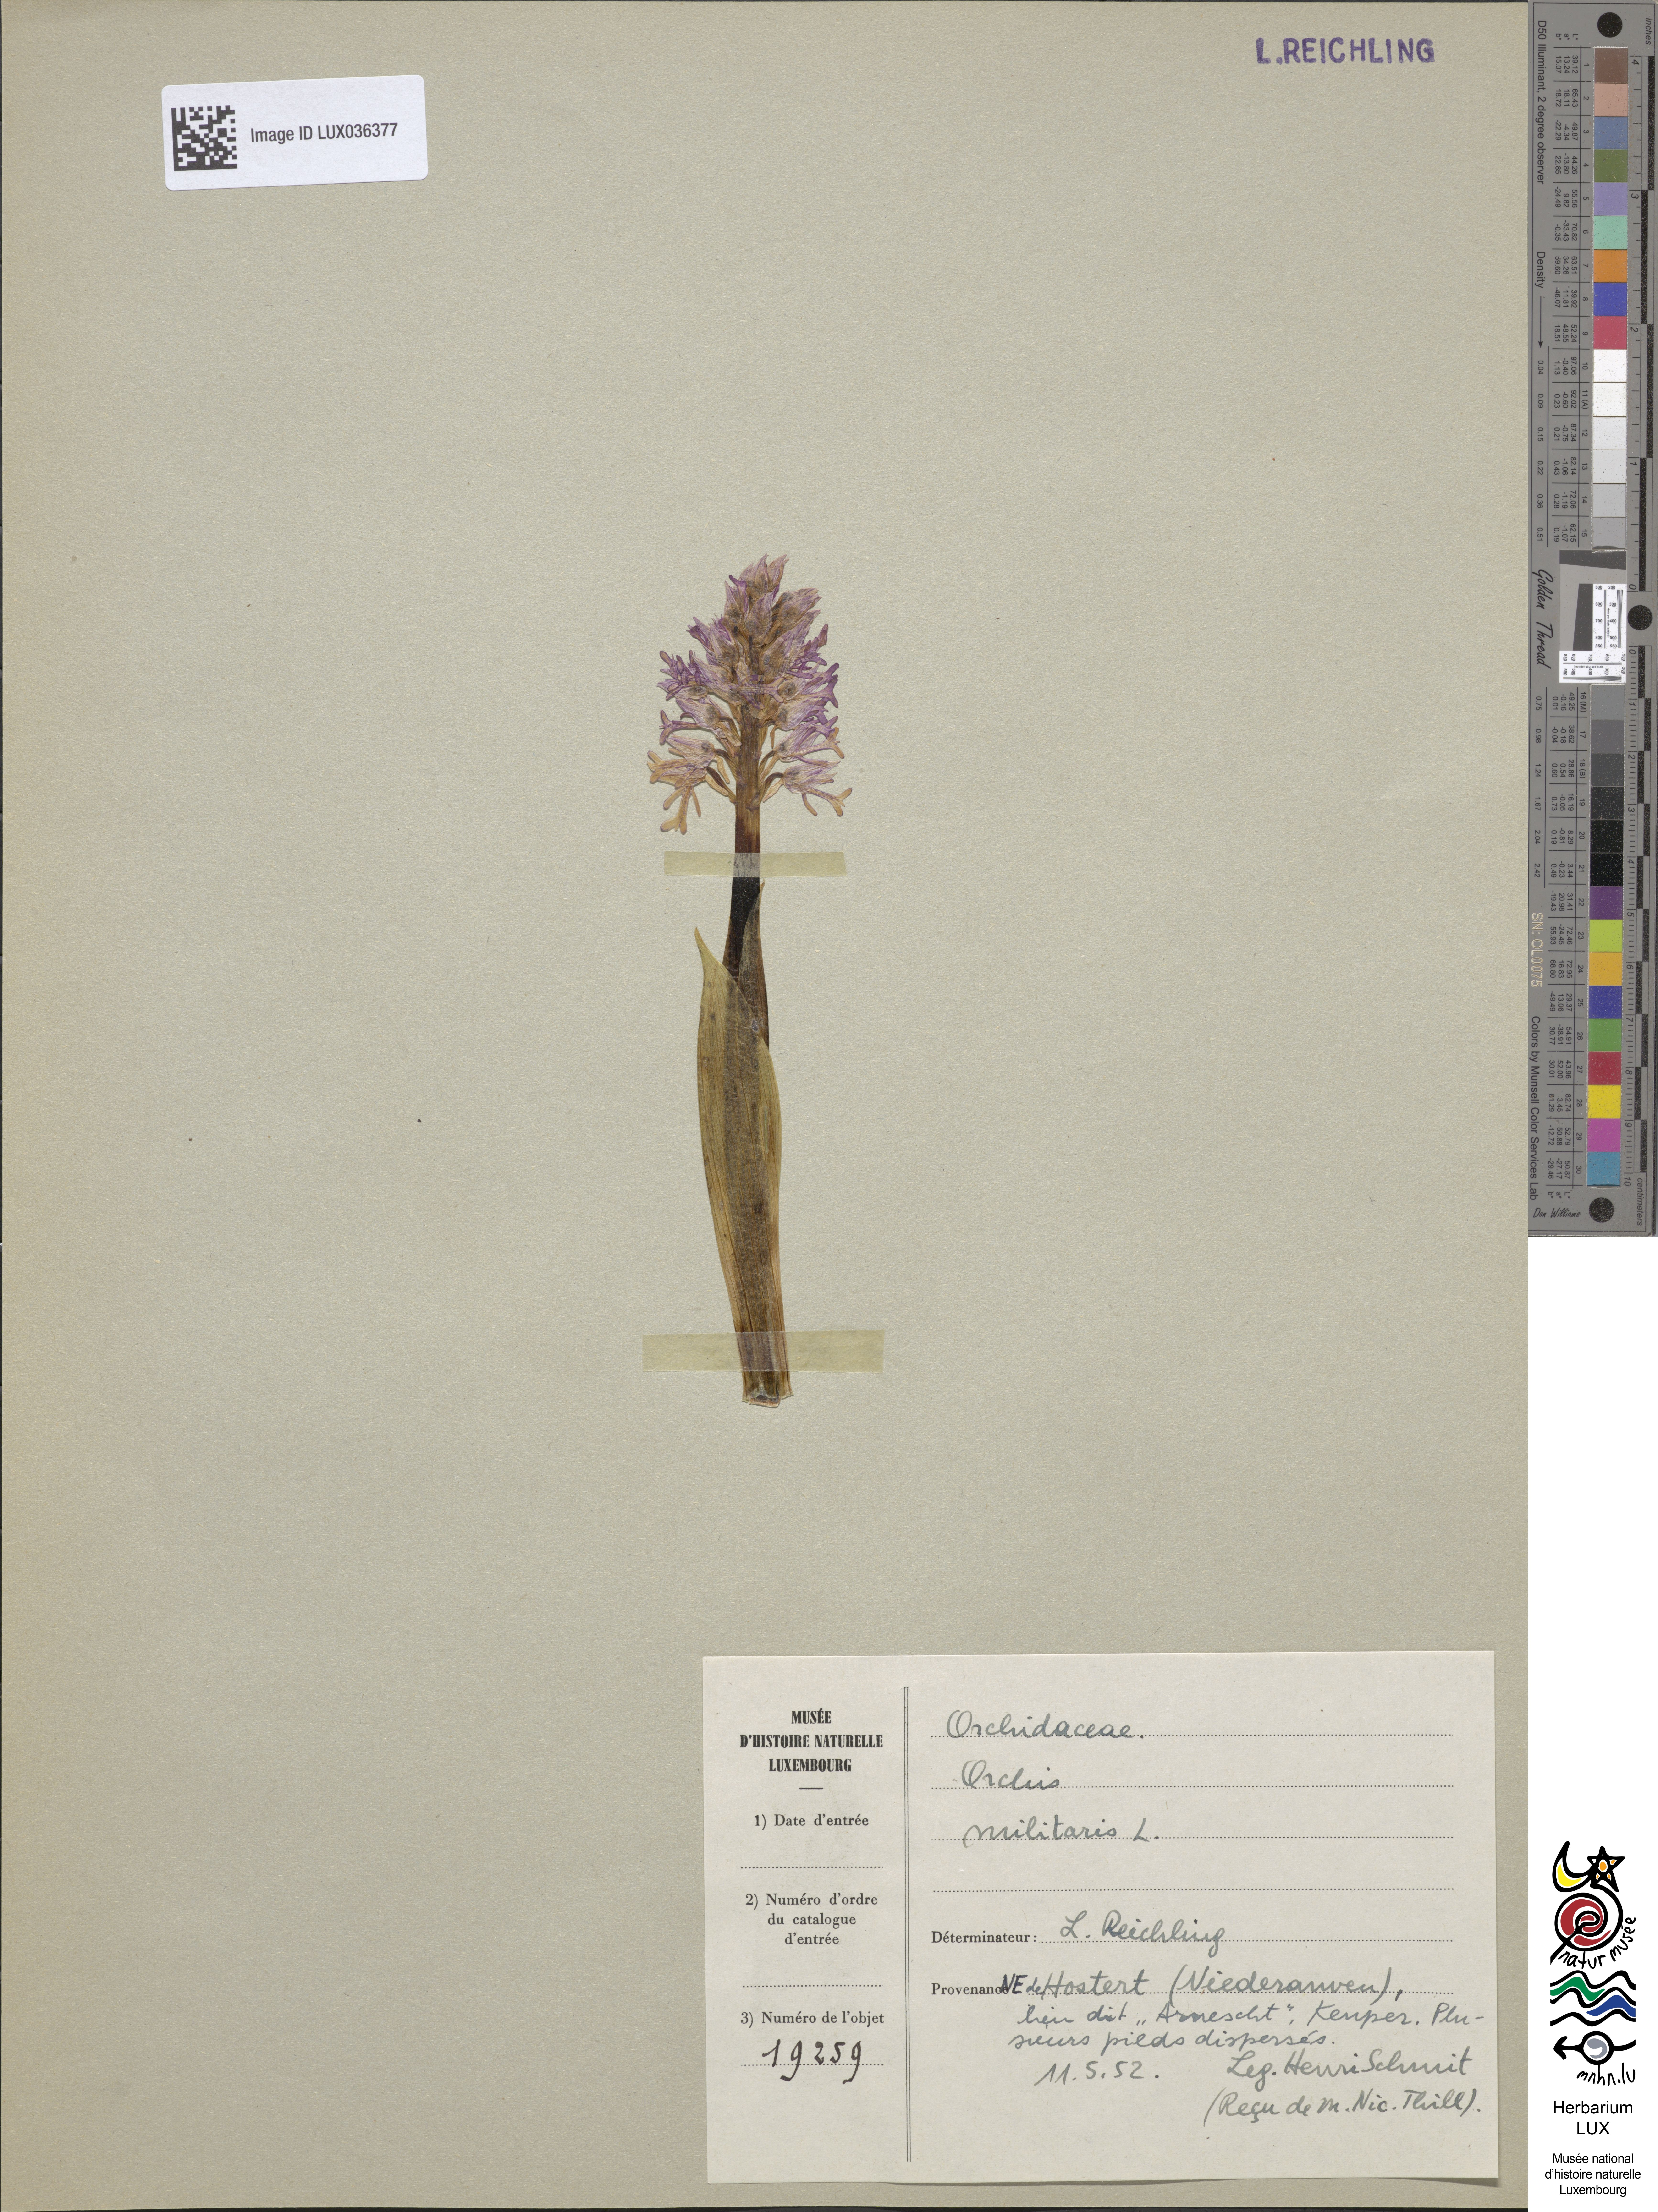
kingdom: Plantae
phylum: Tracheophyta
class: Liliopsida
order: Asparagales
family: Orchidaceae
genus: Orchis
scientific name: Orchis militaris
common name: Military orchid
